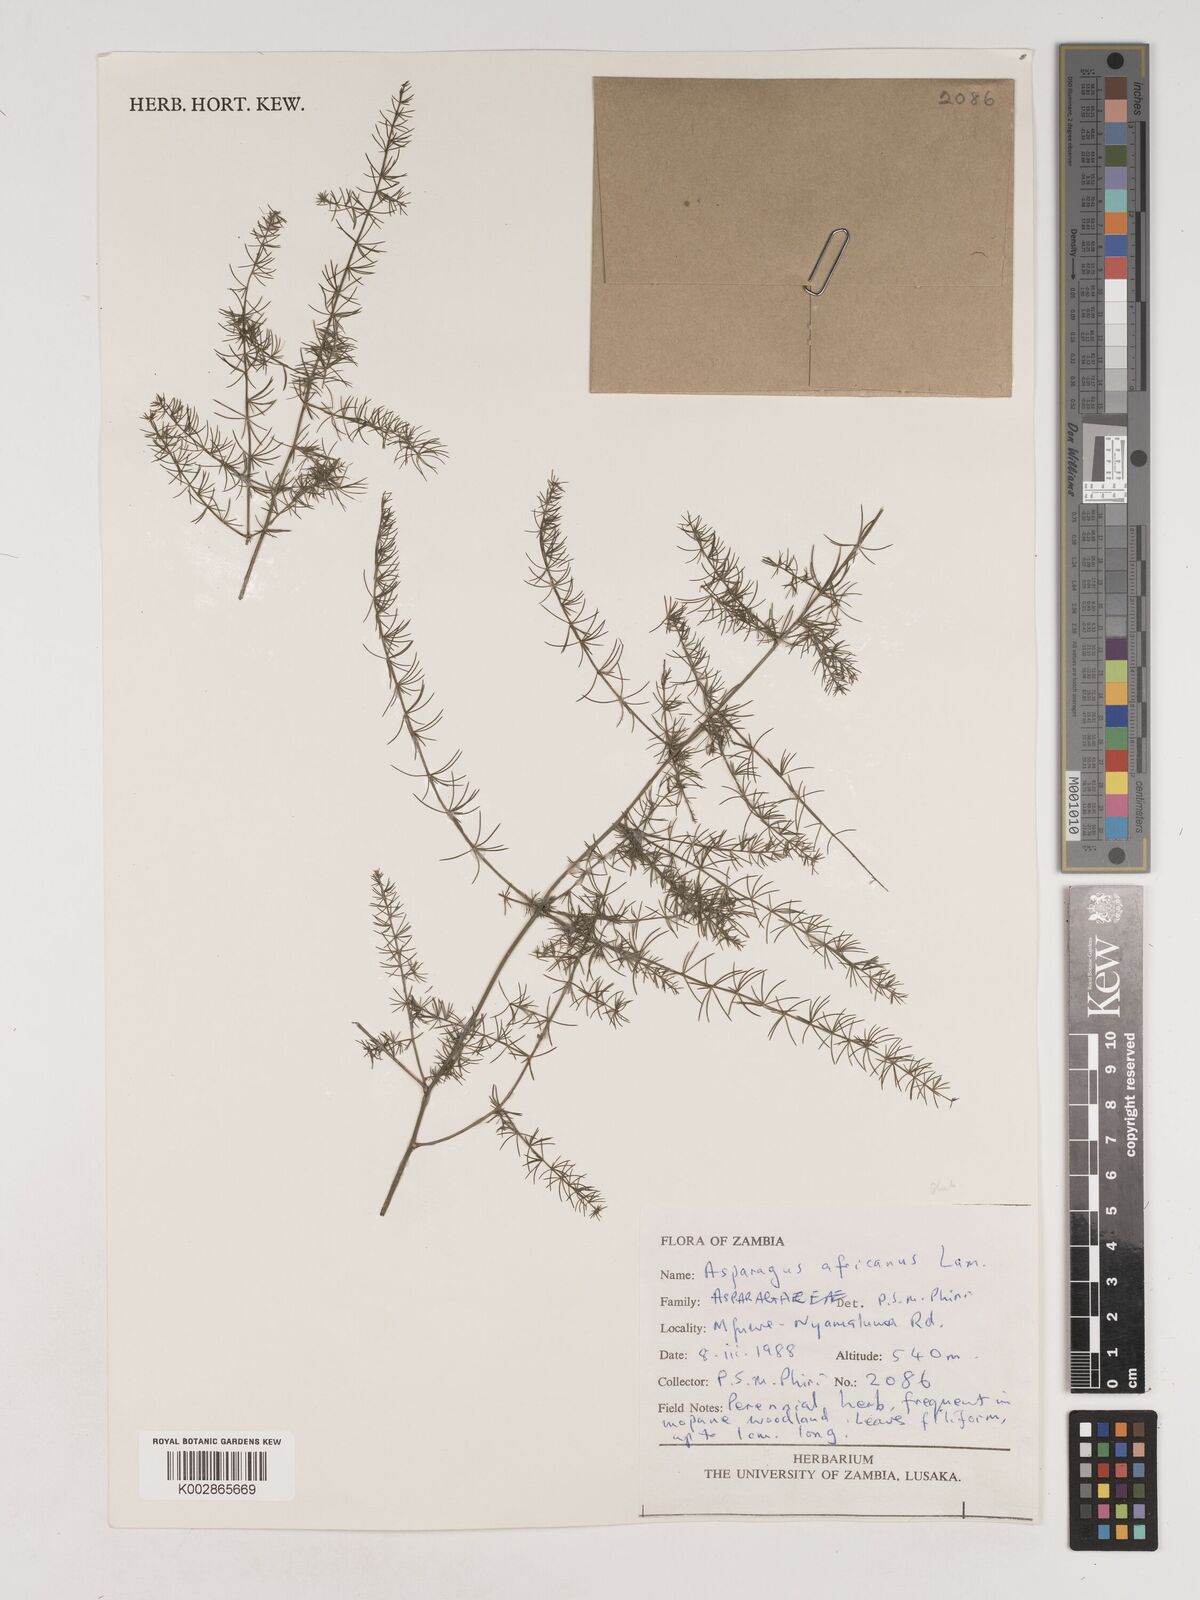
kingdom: Plantae
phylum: Tracheophyta
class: Liliopsida
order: Asparagales
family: Asparagaceae
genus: Asparagus
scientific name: Asparagus africanus
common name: Asparagus-fern
